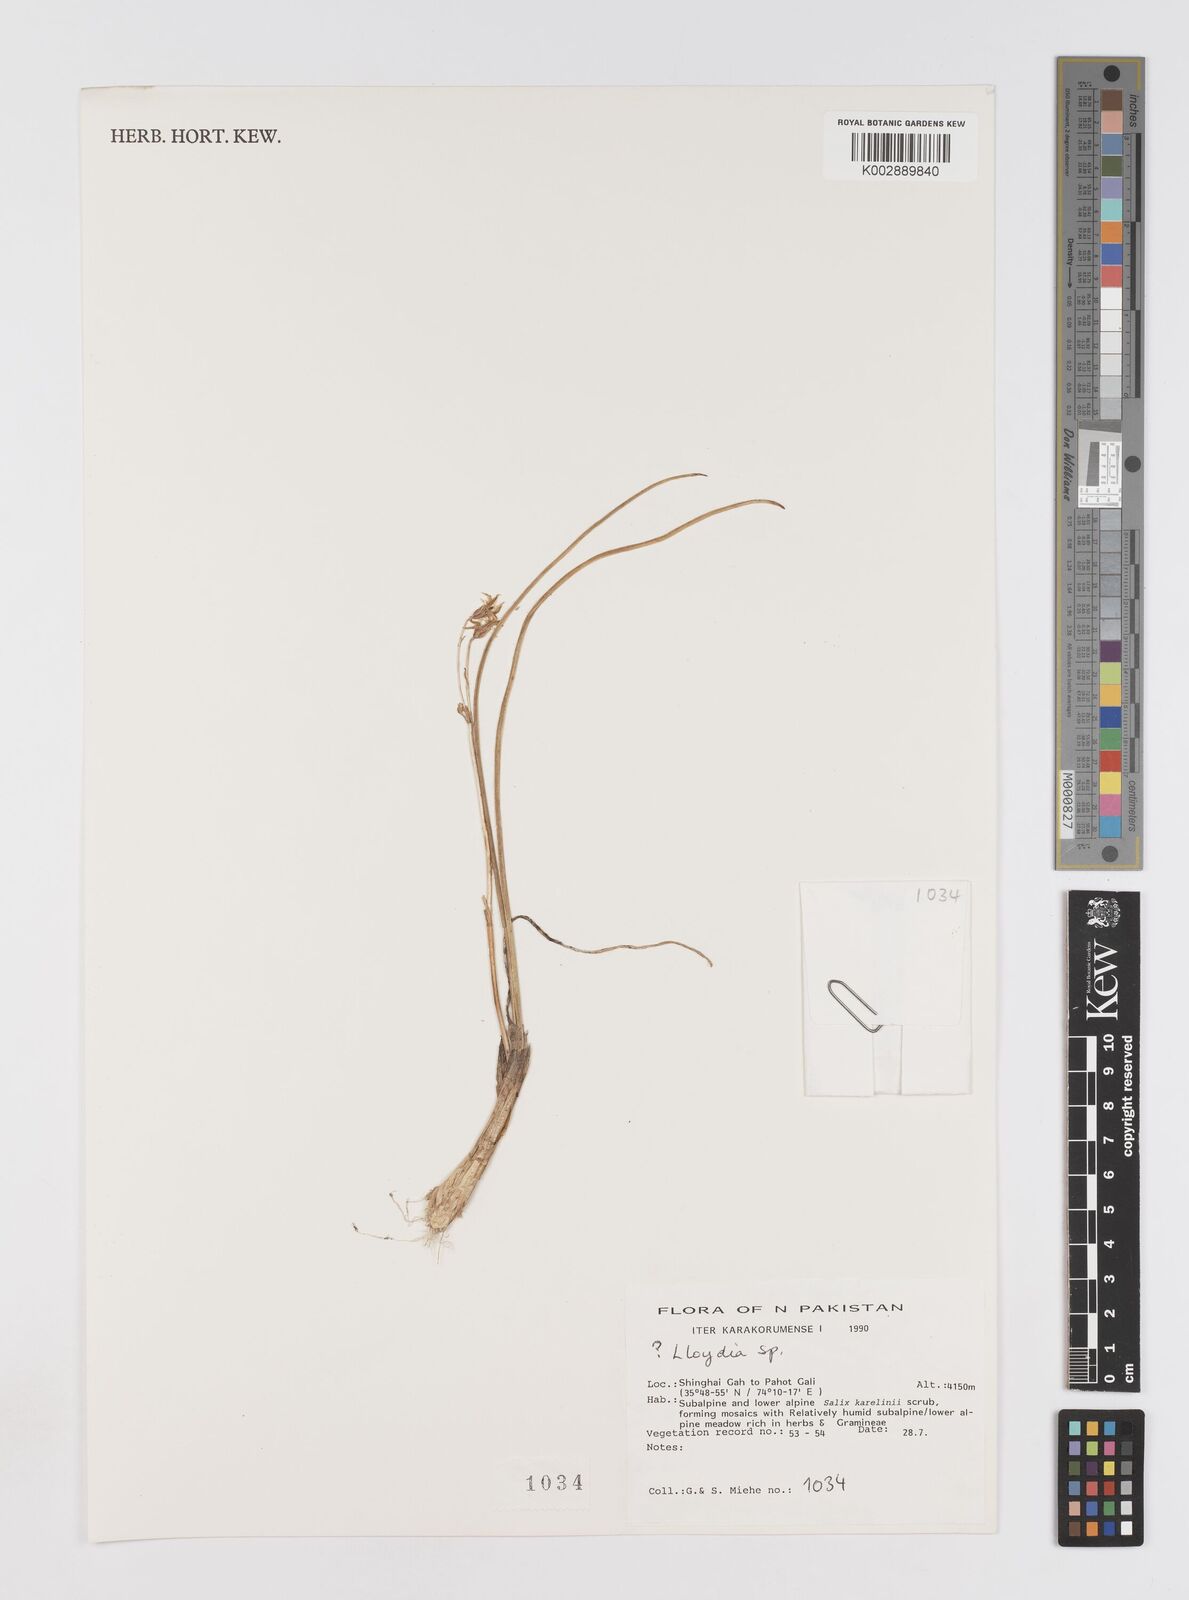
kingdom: Plantae
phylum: Tracheophyta
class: Liliopsida
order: Liliales
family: Liliaceae
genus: Gagea
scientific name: Gagea
